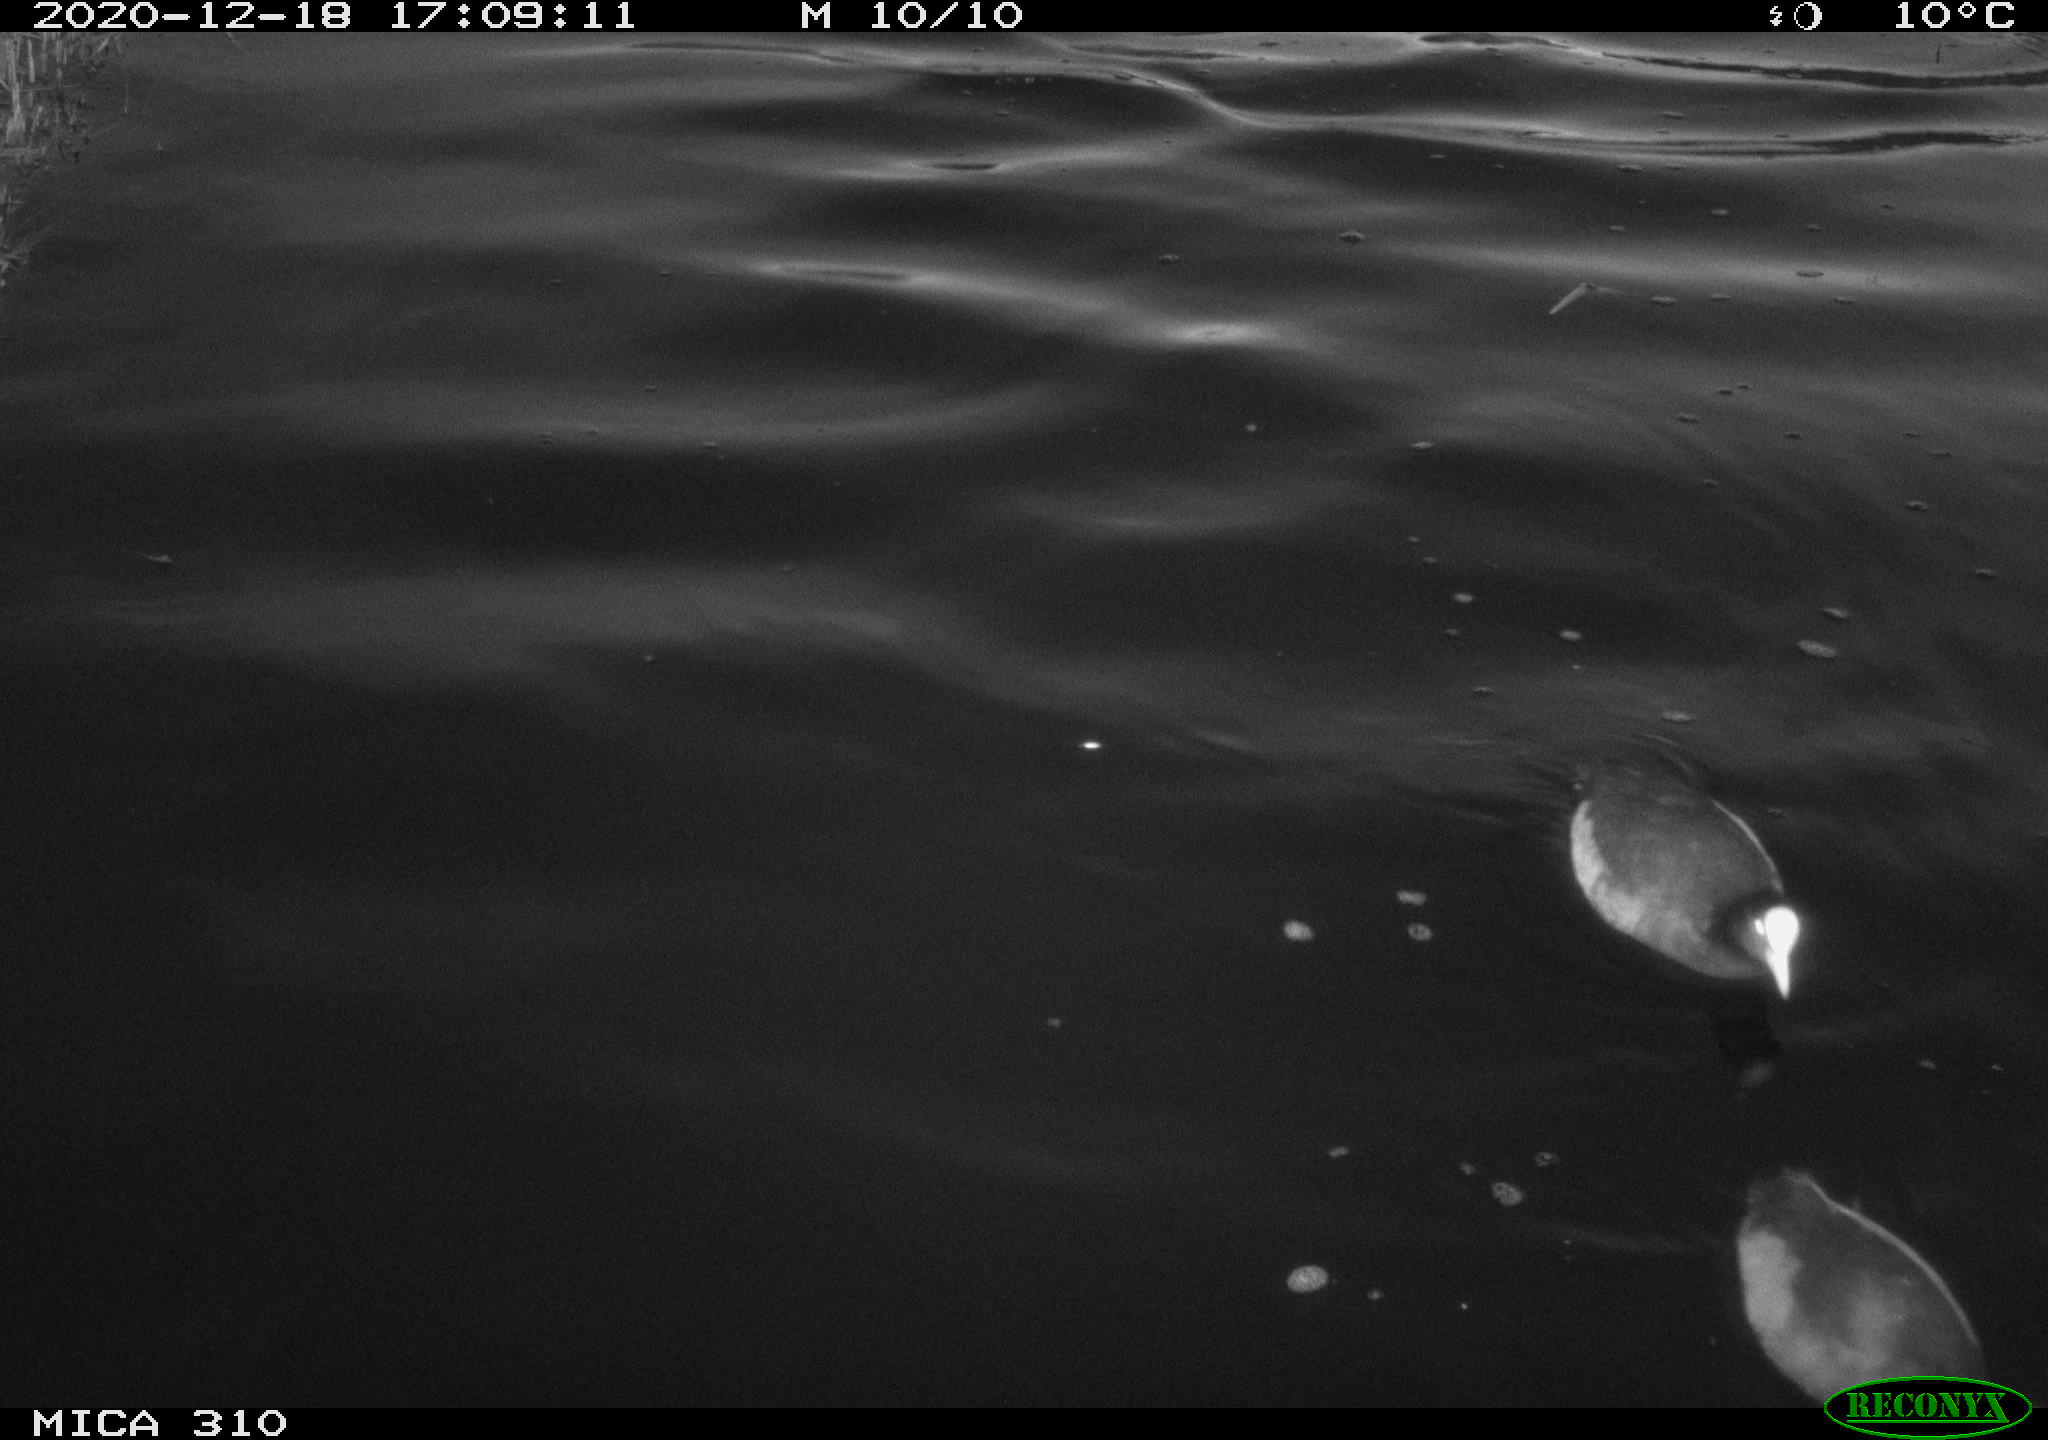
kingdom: Animalia
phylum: Chordata
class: Aves
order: Gruiformes
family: Rallidae
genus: Fulica
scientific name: Fulica atra
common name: Eurasian coot
